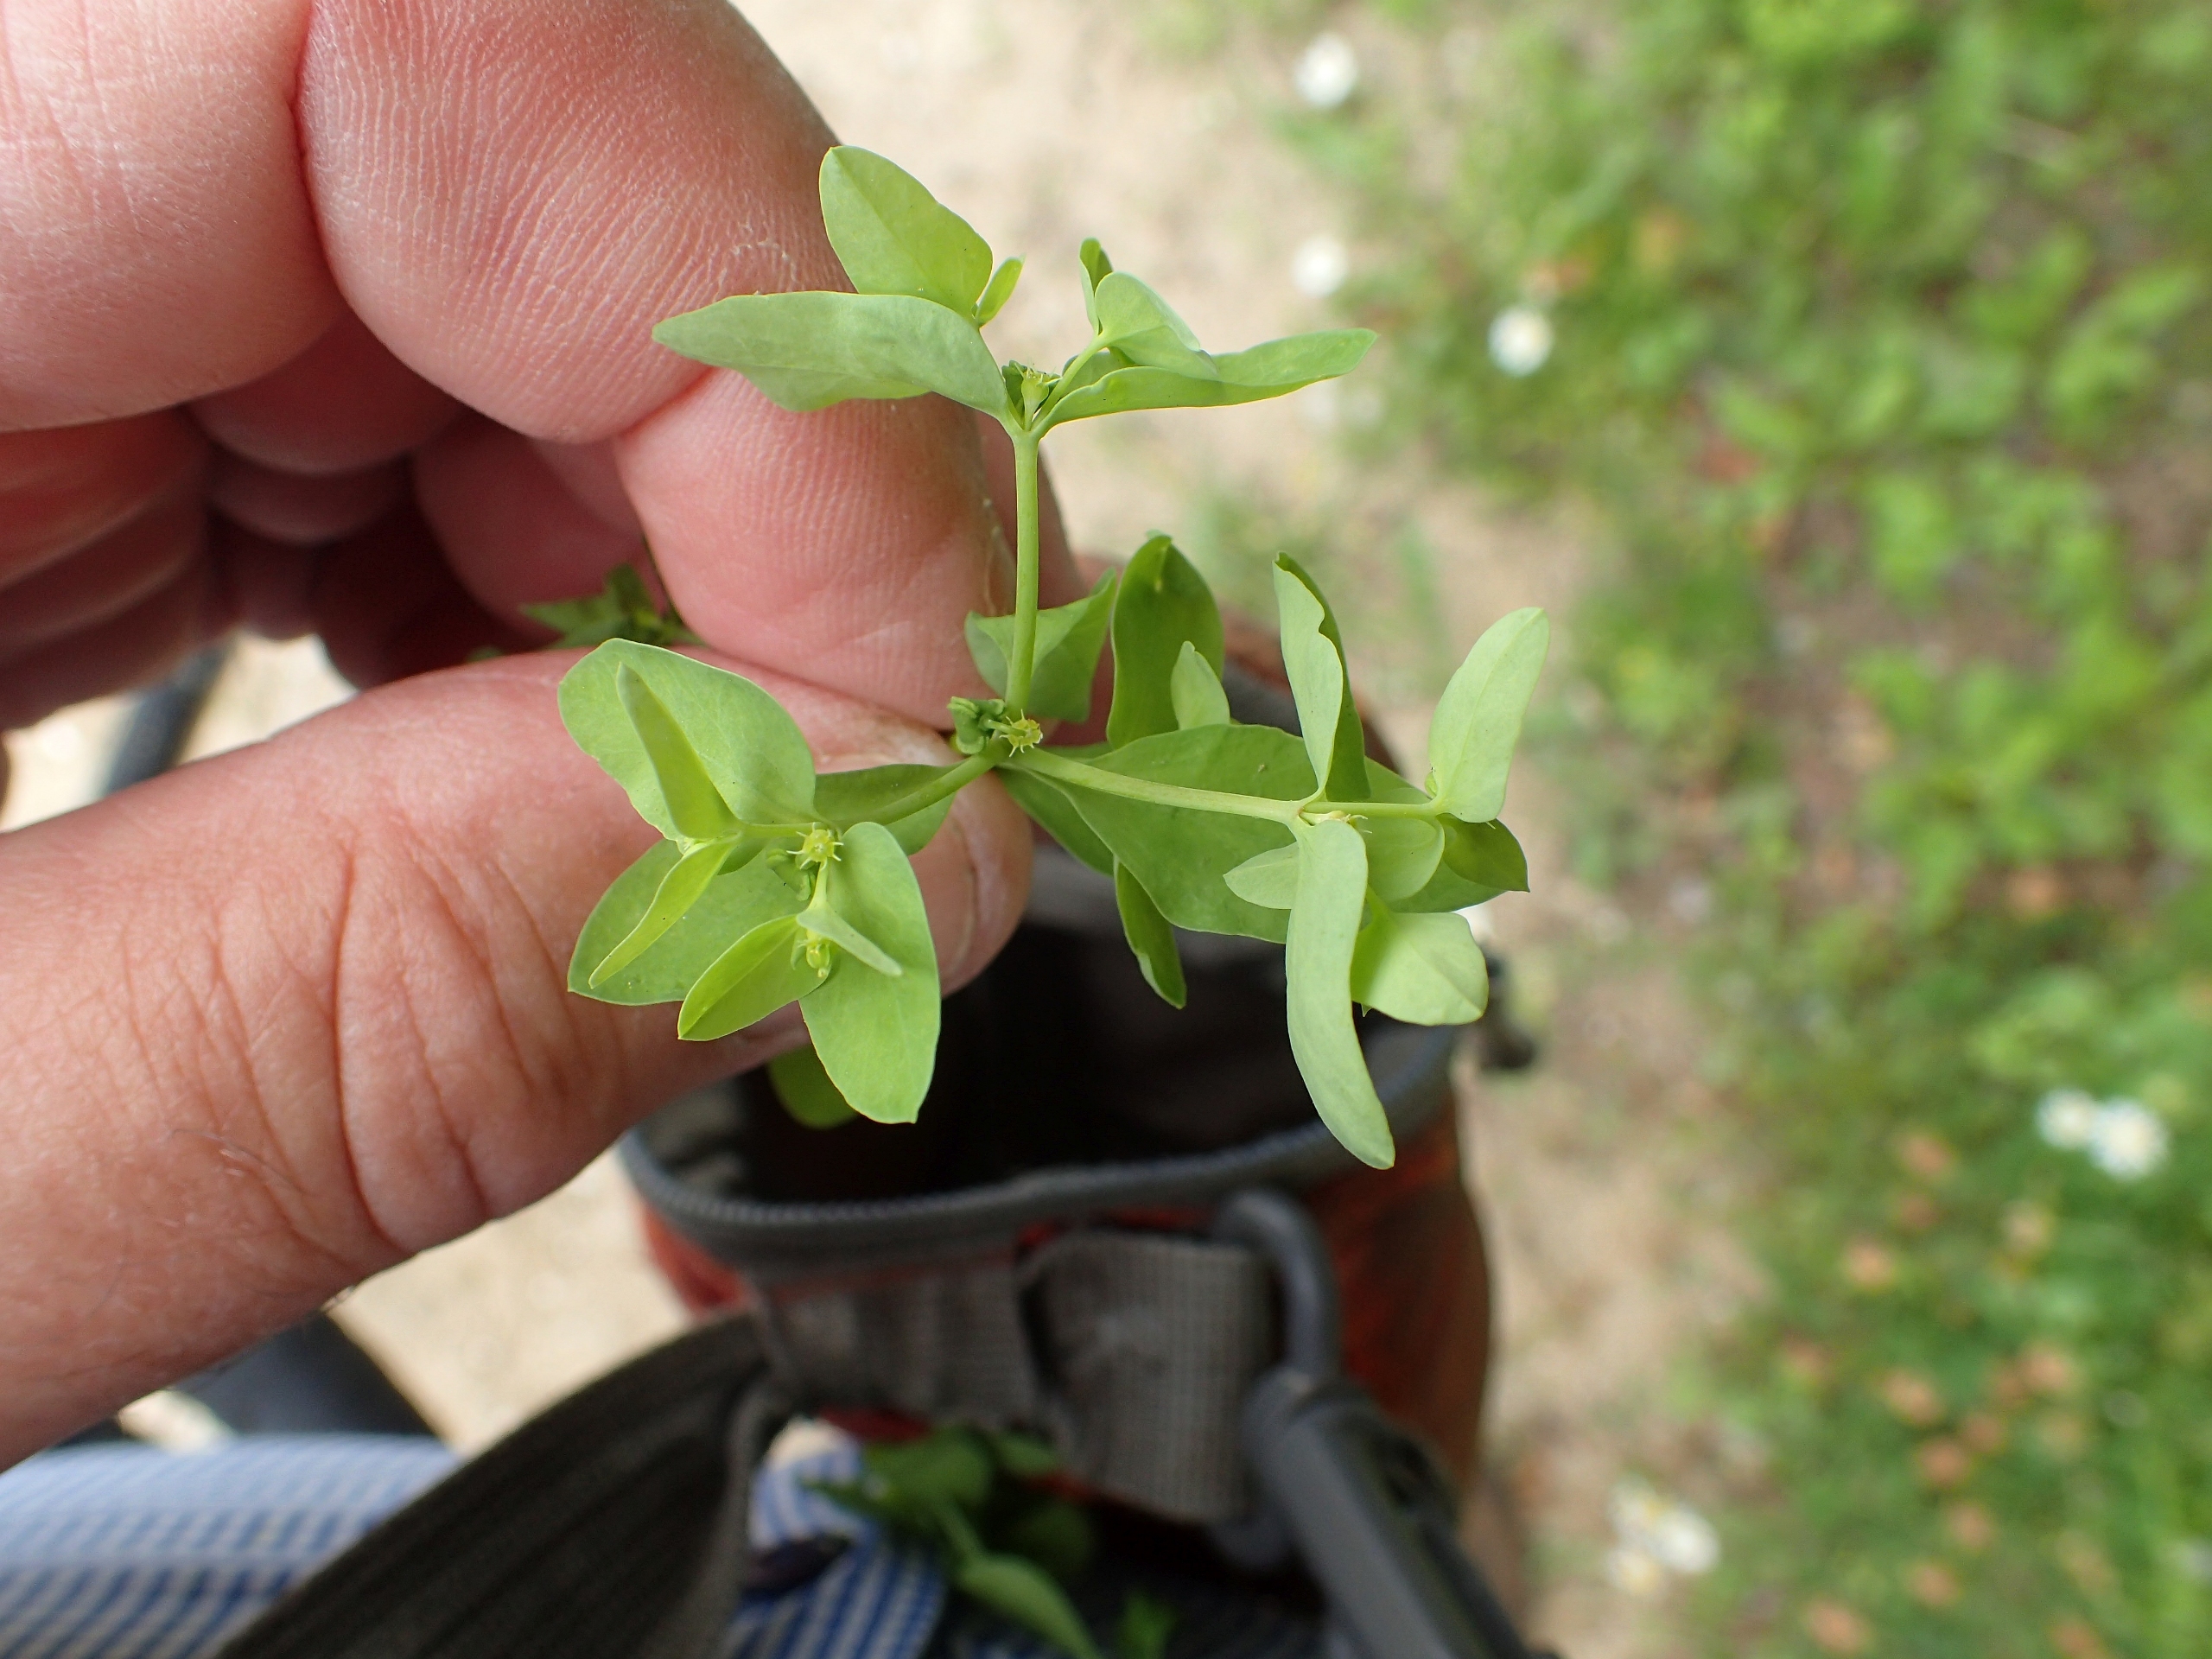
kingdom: Plantae
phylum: Tracheophyta
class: Magnoliopsida
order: Malpighiales
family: Euphorbiaceae
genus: Euphorbia
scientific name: Euphorbia peplus
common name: Gaffel-vortemælk
